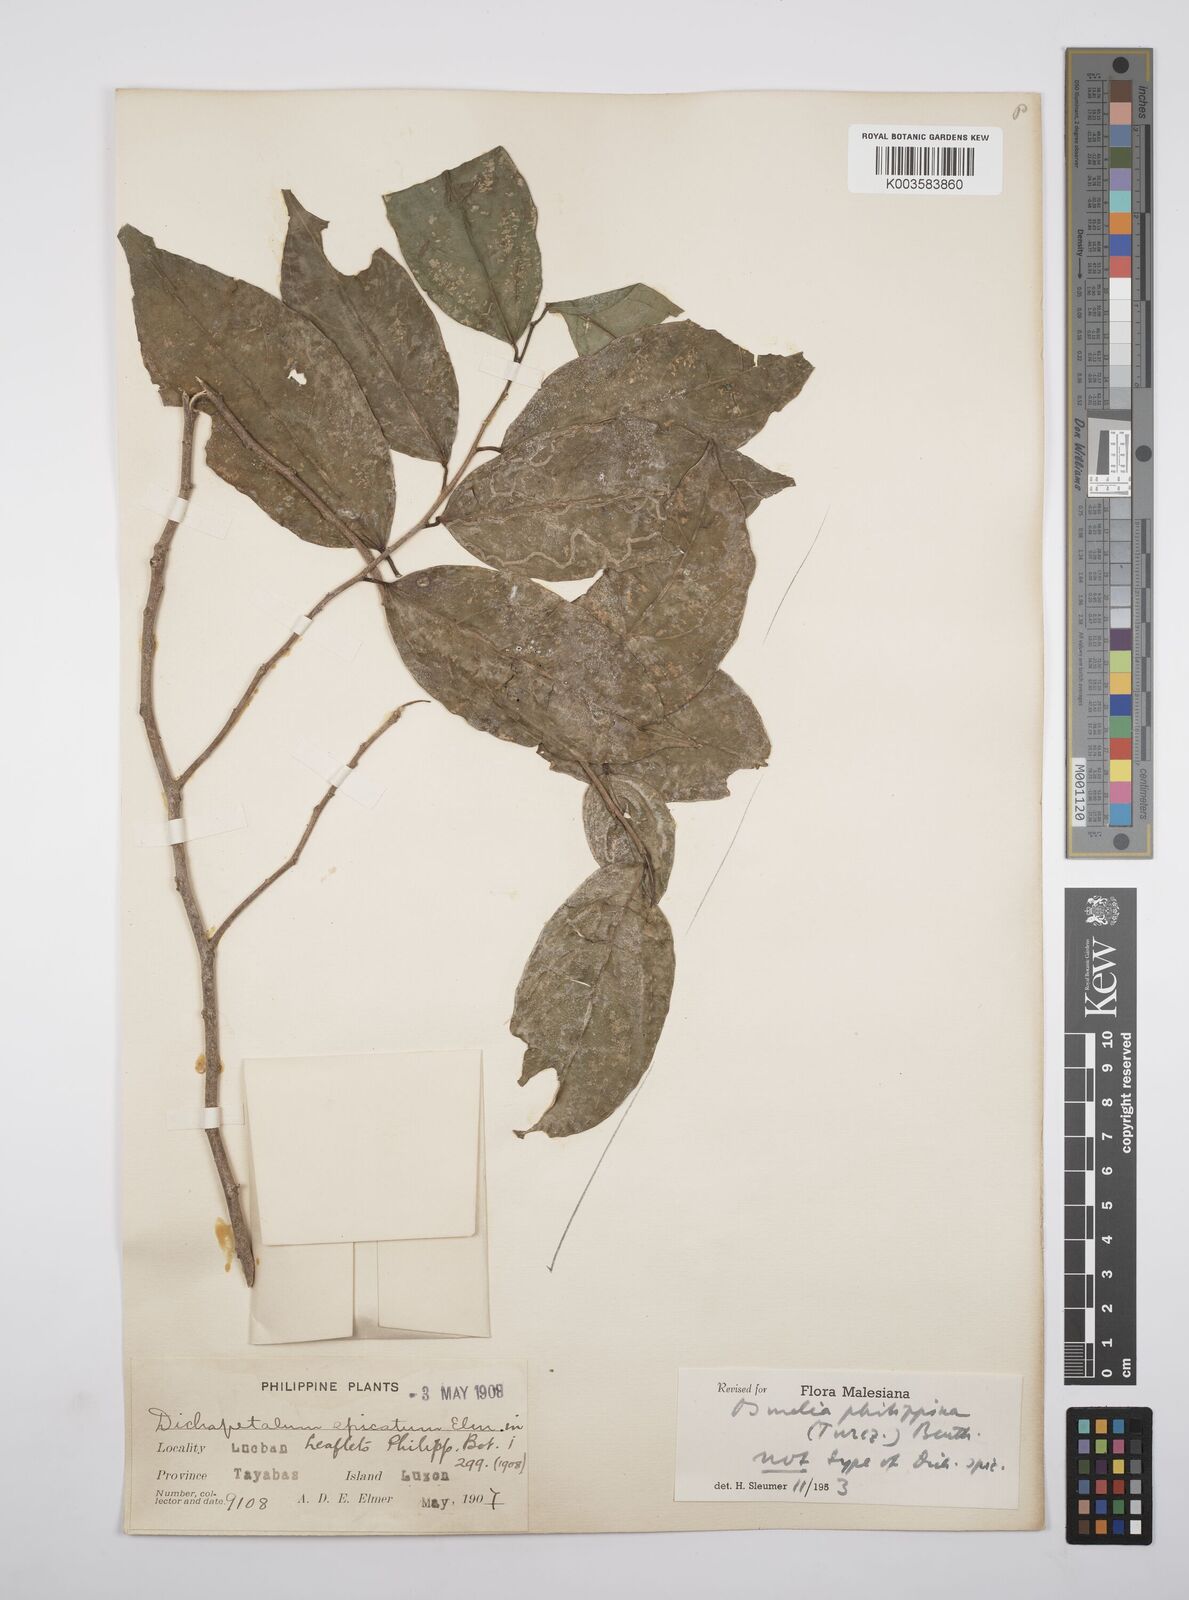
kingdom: Plantae
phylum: Tracheophyta
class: Magnoliopsida
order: Malpighiales
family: Salicaceae
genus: Osmelia
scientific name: Osmelia philippina
